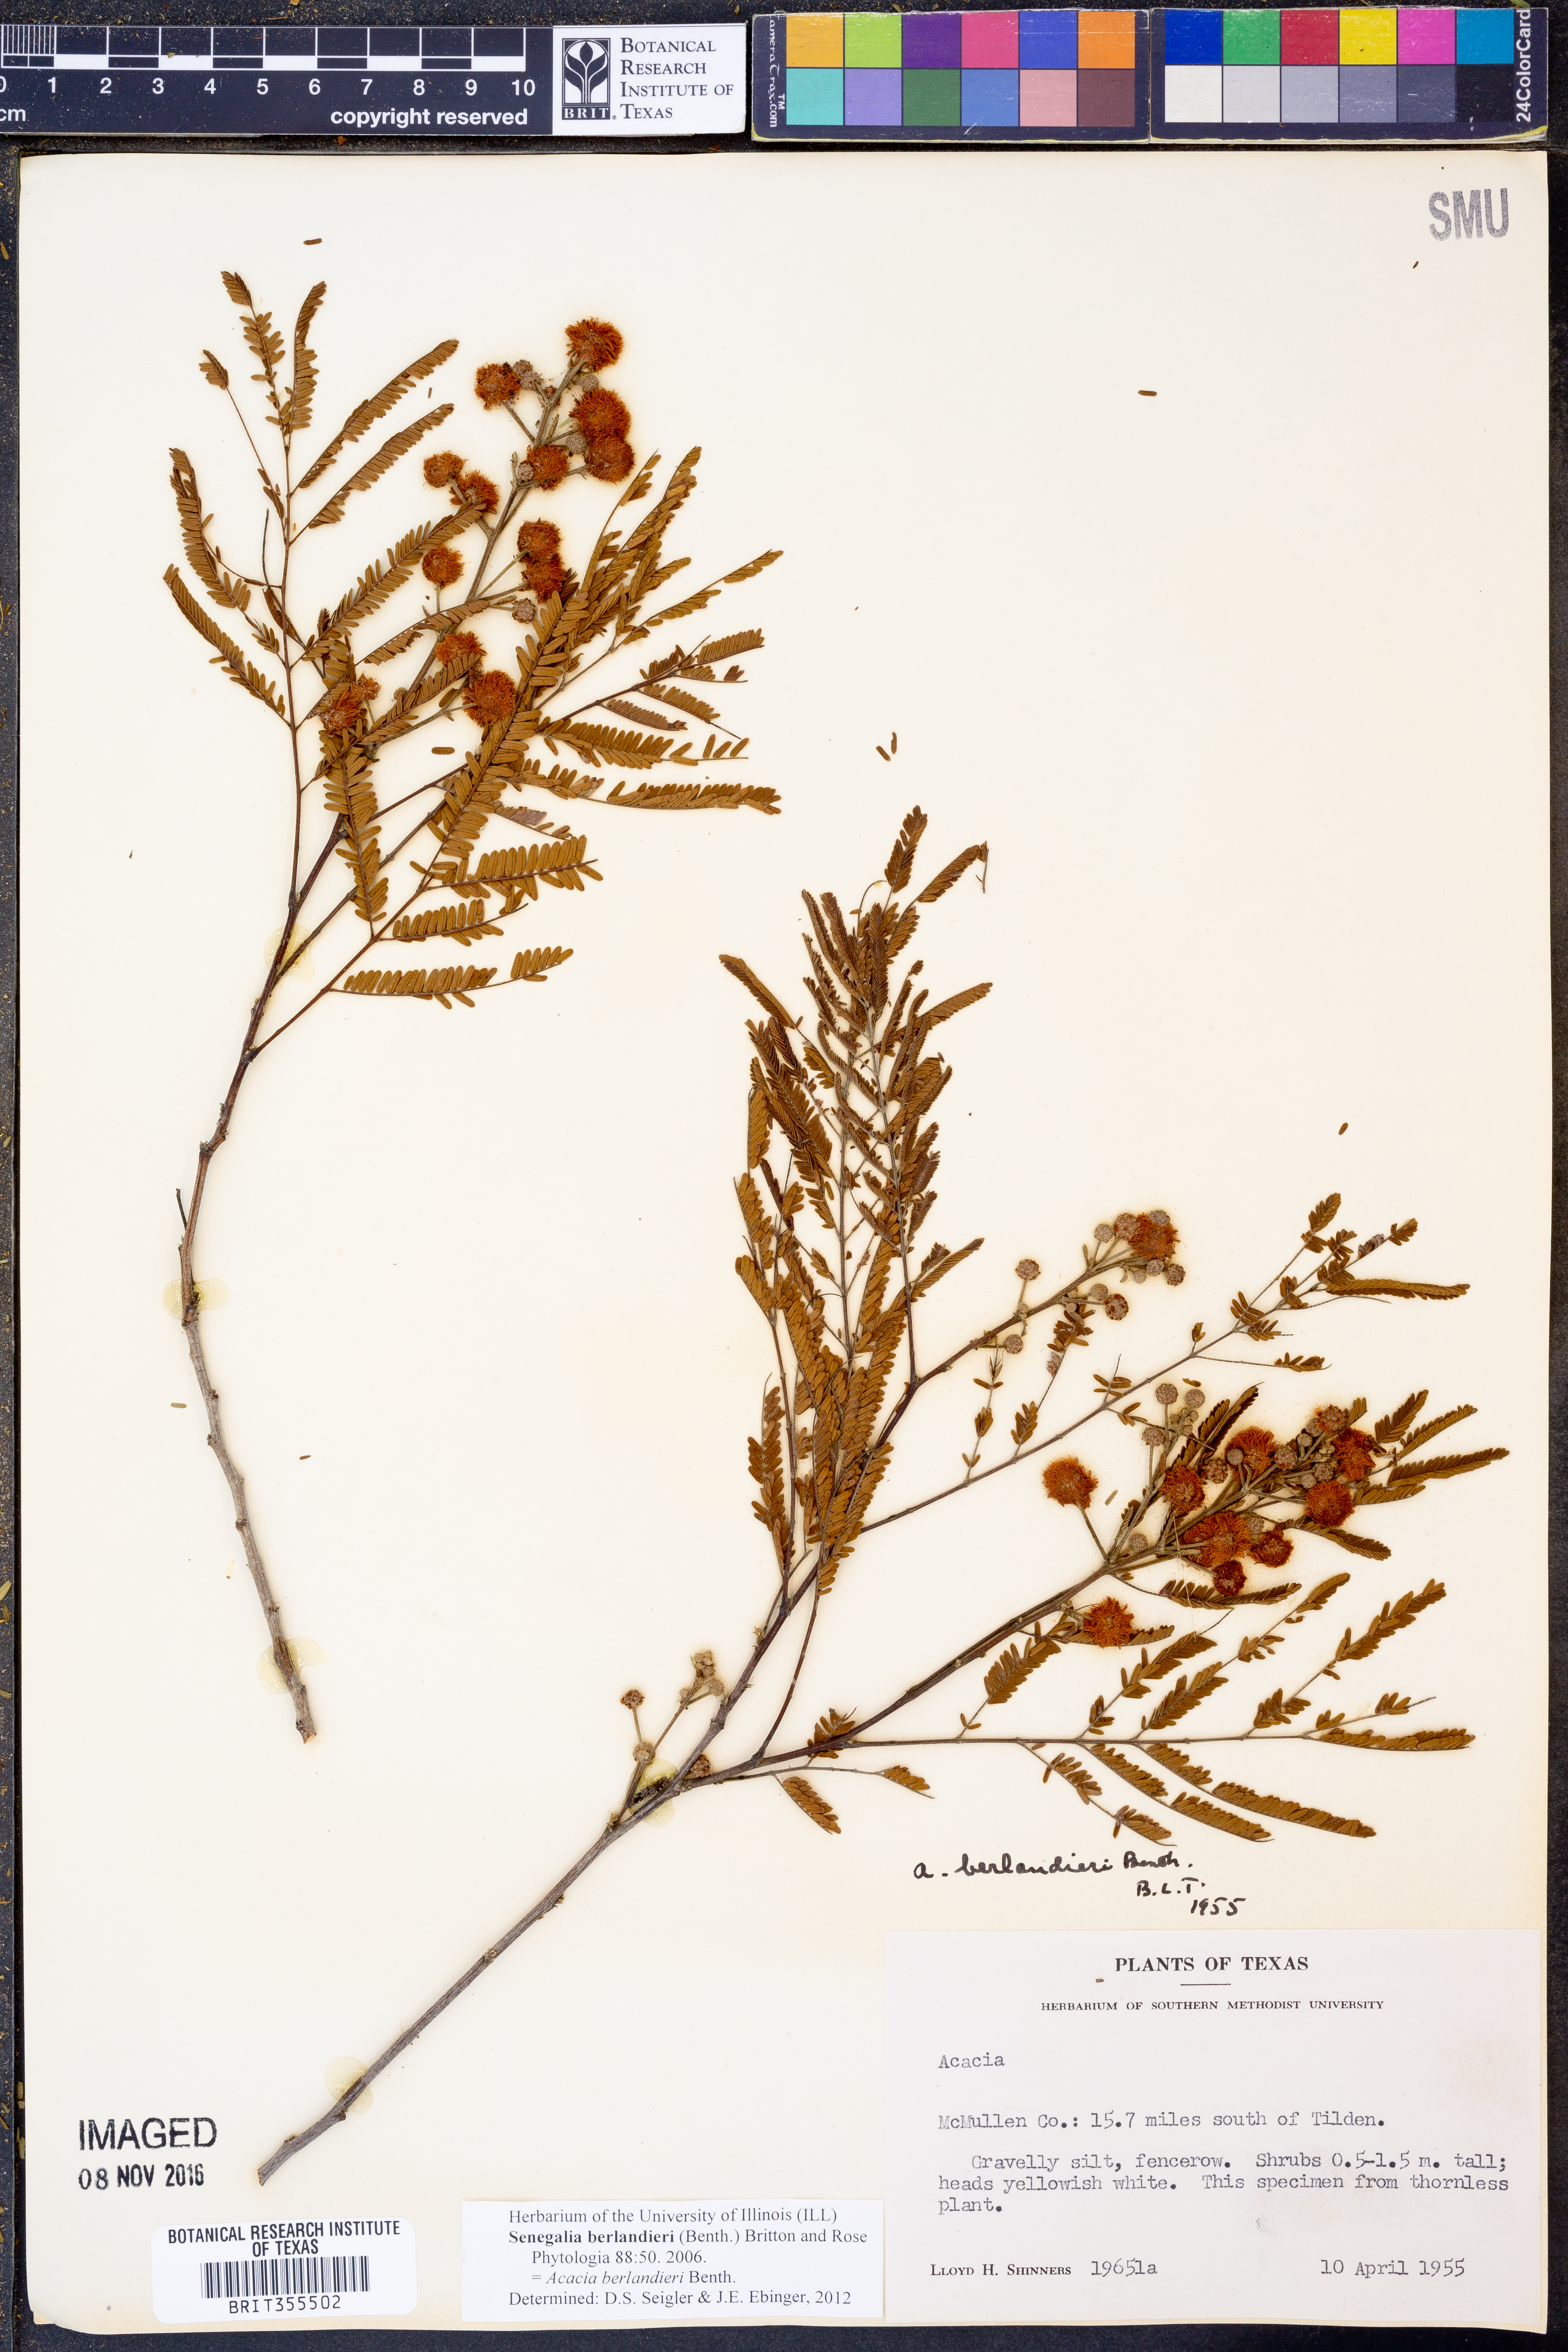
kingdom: Plantae
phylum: Tracheophyta
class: Magnoliopsida
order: Fabales
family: Fabaceae
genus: Senegalia
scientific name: Senegalia berlandieri
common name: Berlandier acacia
